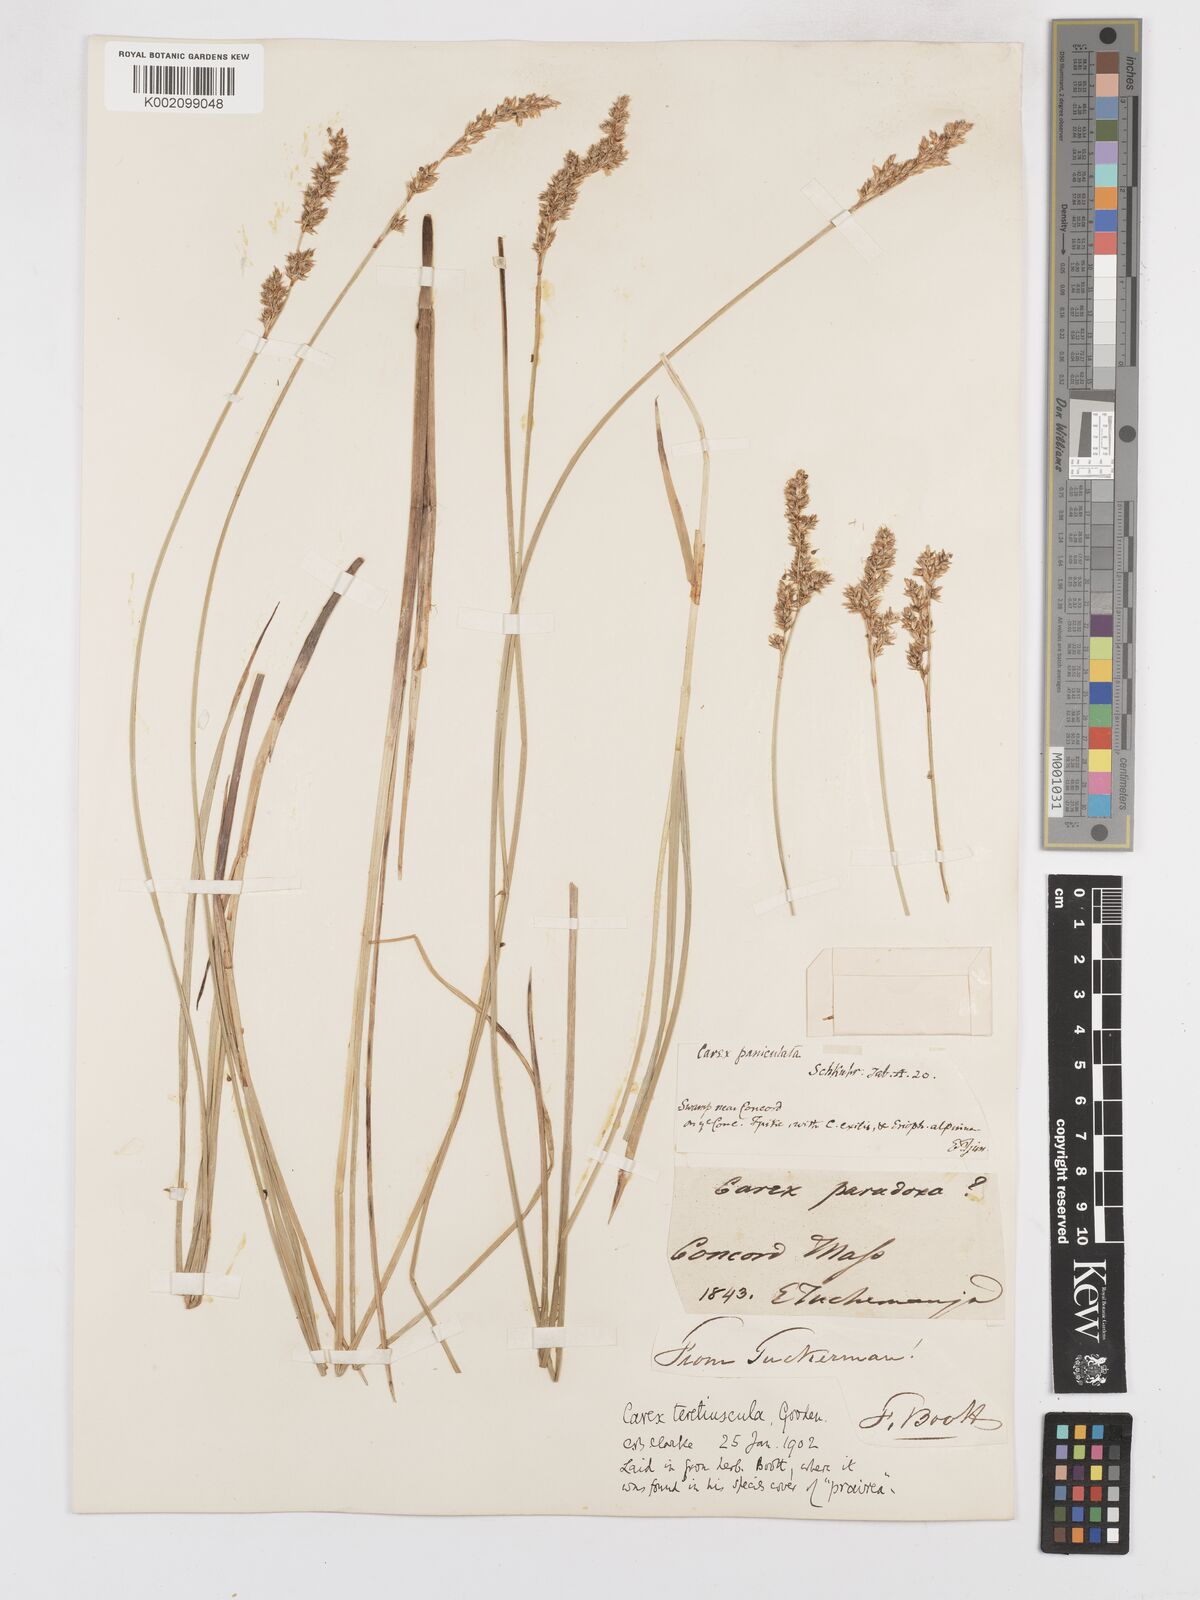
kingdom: Plantae
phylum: Tracheophyta
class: Liliopsida
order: Poales
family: Cyperaceae
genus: Carex
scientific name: Carex diandra
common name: Lesser tussock-sedge
